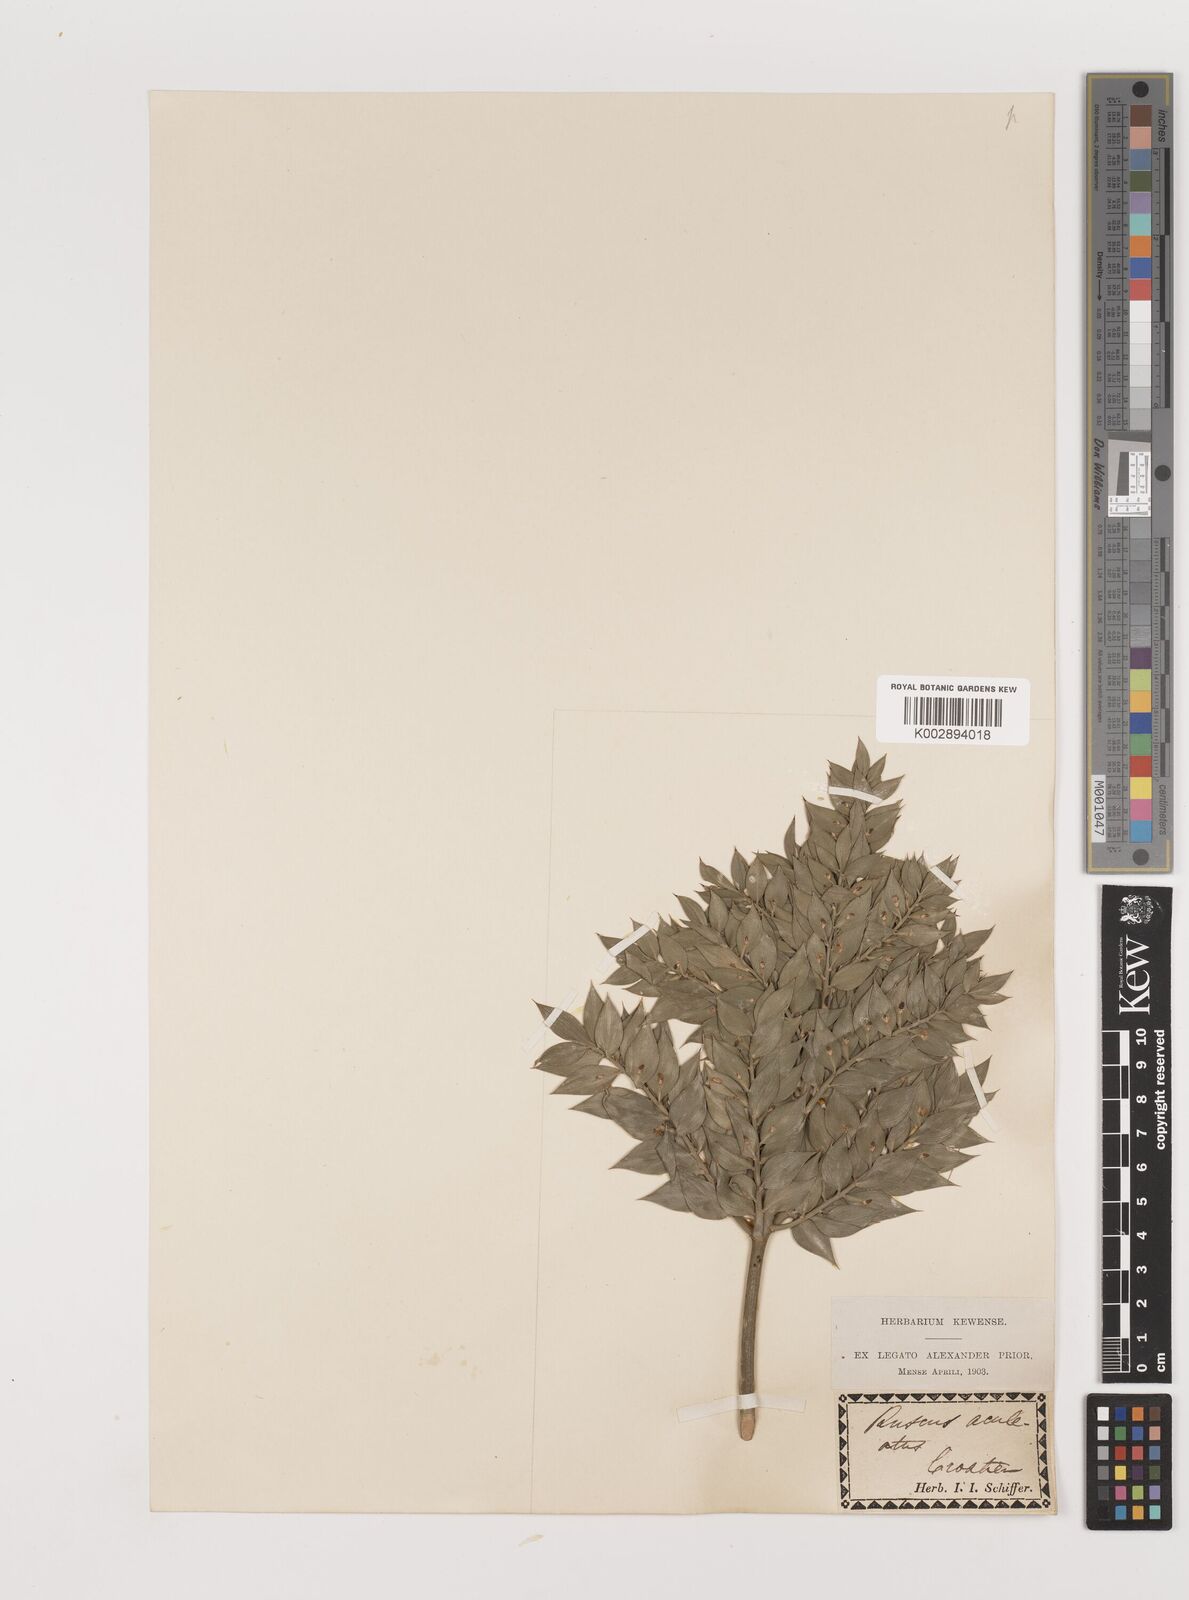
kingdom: Plantae
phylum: Tracheophyta
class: Liliopsida
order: Asparagales
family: Asparagaceae
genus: Ruscus
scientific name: Ruscus aculeatus
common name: Butcher's-broom
